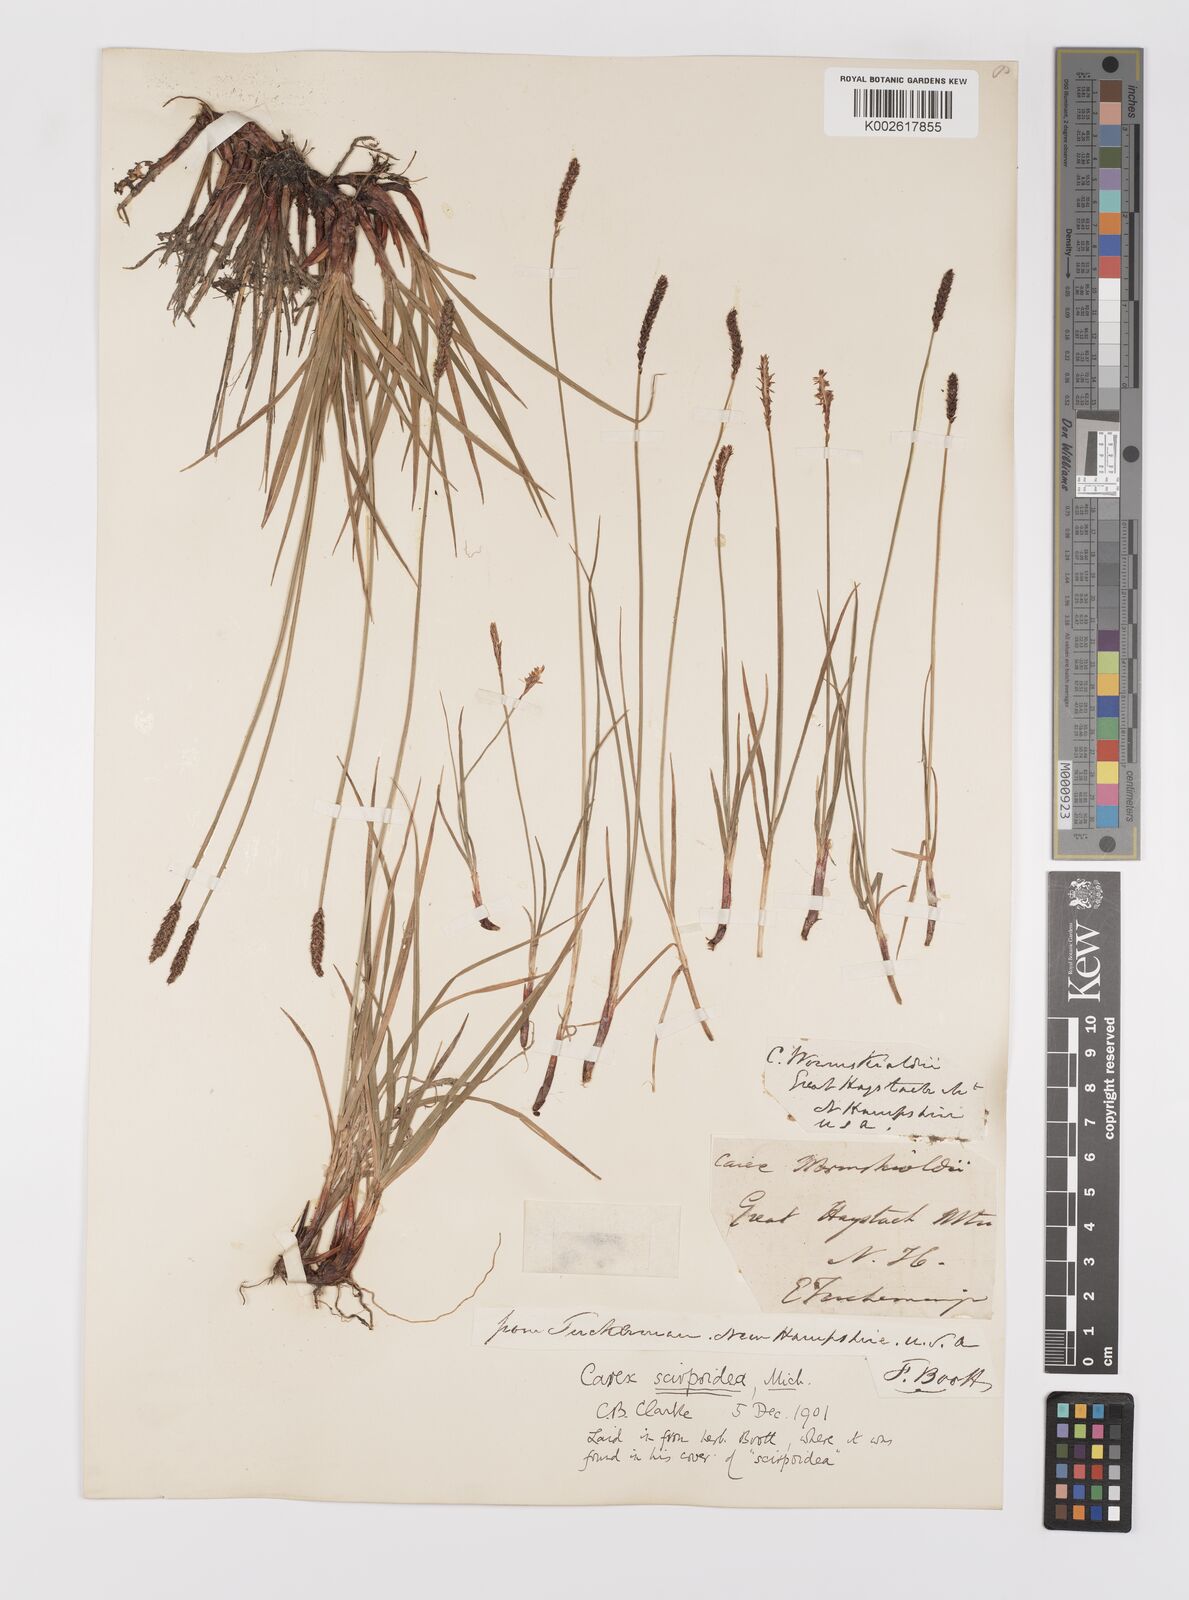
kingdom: Plantae
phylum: Tracheophyta
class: Liliopsida
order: Poales
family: Cyperaceae
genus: Carex
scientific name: Carex scirpoidea
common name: Canada single-spike sedge
